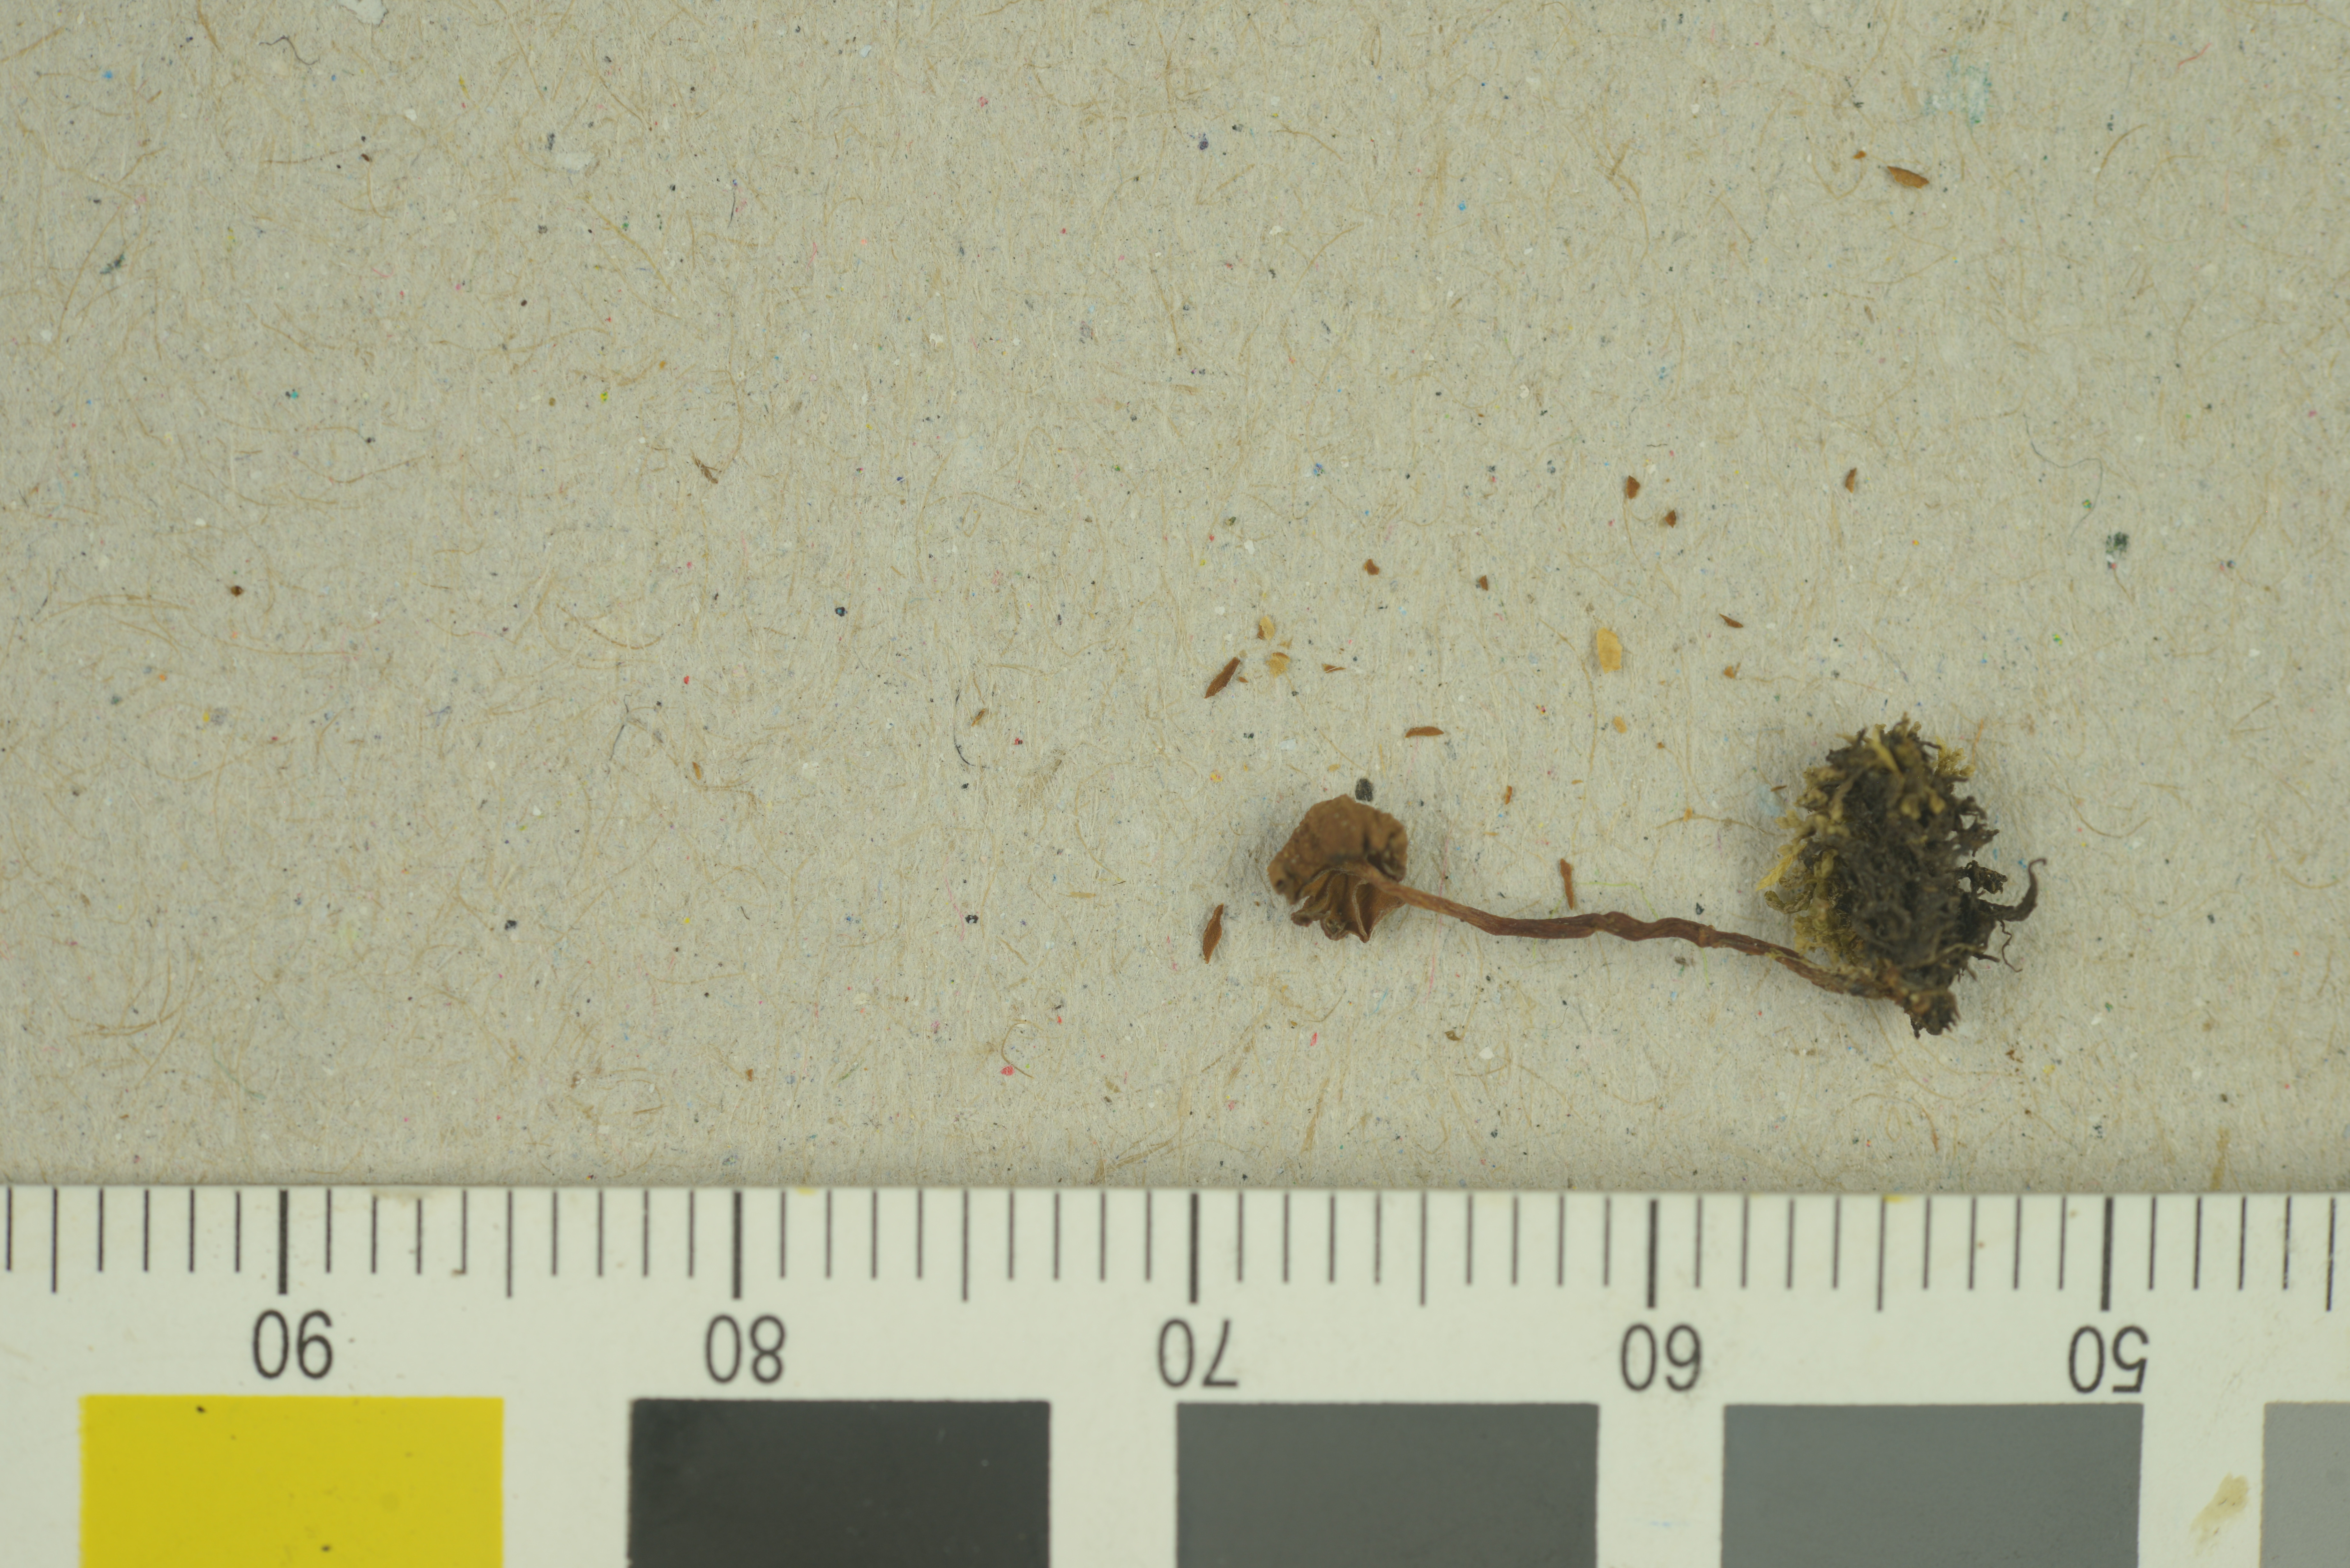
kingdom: Fungi
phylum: Basidiomycota
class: Agaricomycetes
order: Agaricales
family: Hymenogastraceae
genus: Galerina
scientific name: Galerina vittiformis
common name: Hairy leg bell
